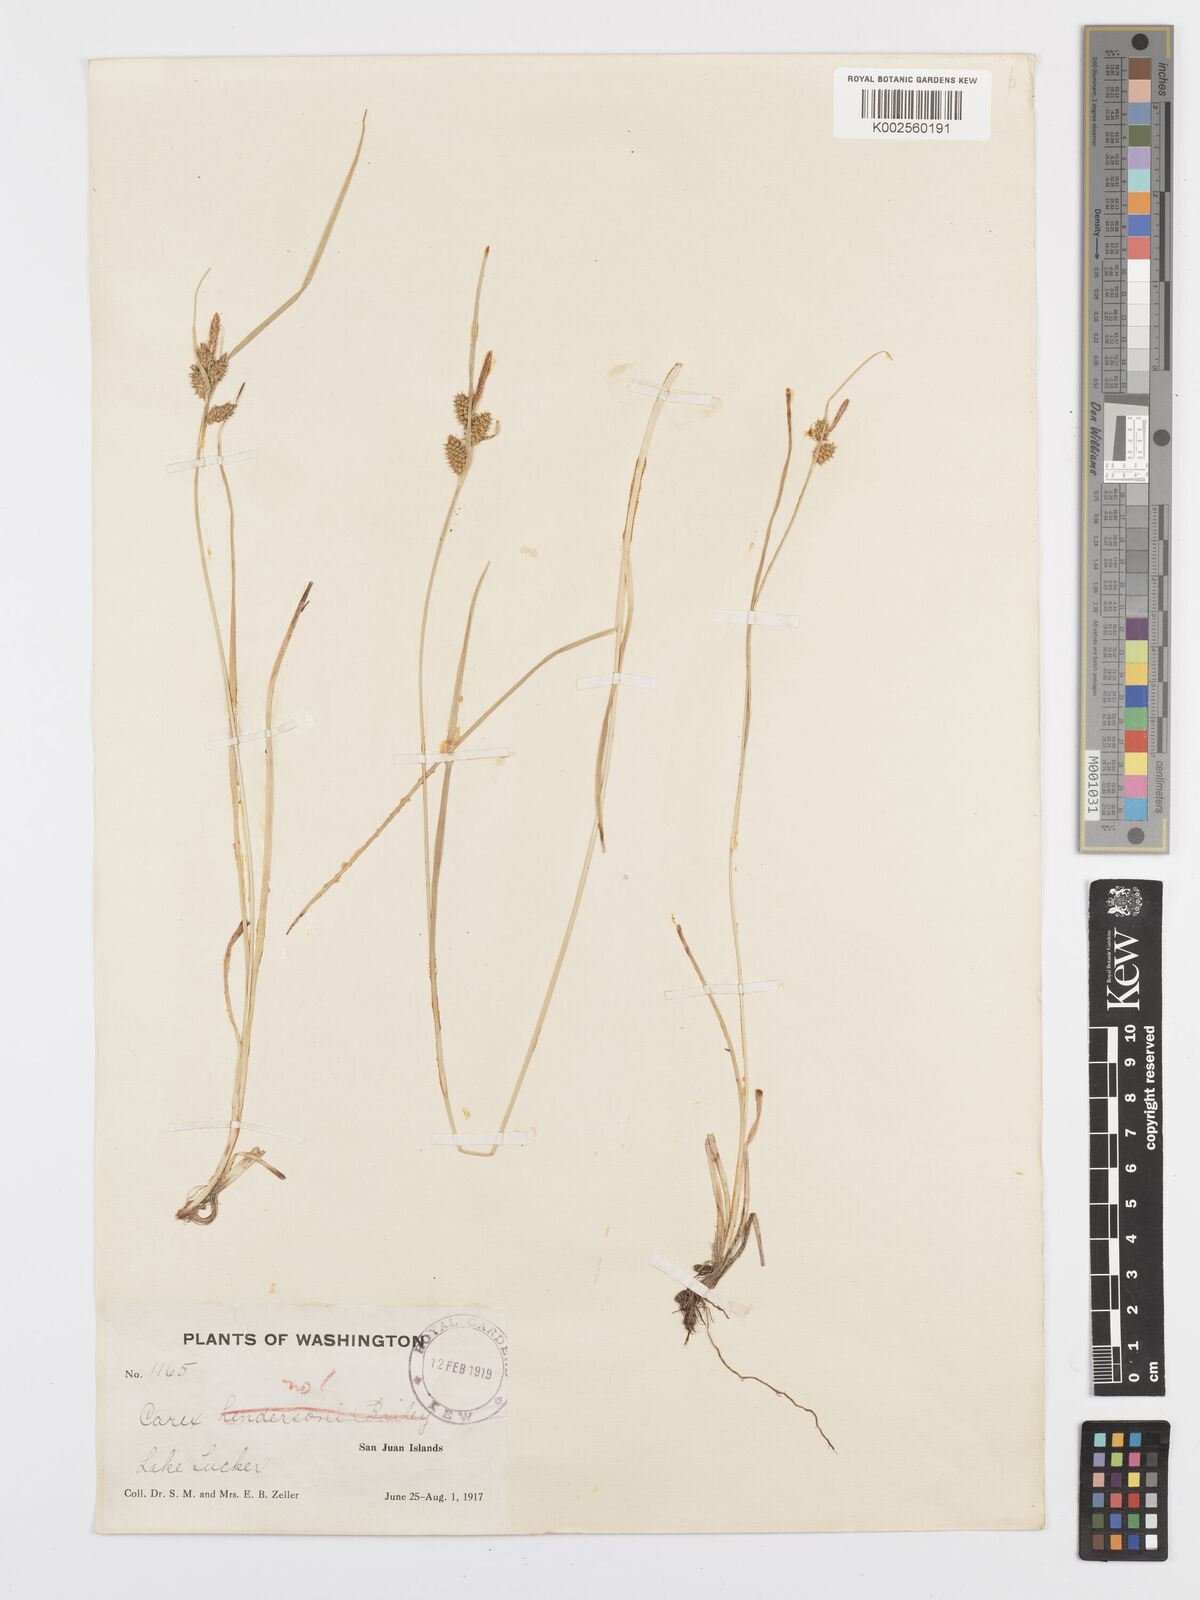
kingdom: Plantae
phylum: Tracheophyta
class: Liliopsida
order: Poales
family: Cyperaceae
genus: Carex
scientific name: Carex oederi
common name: Common & small-fruited yellow-sedge
